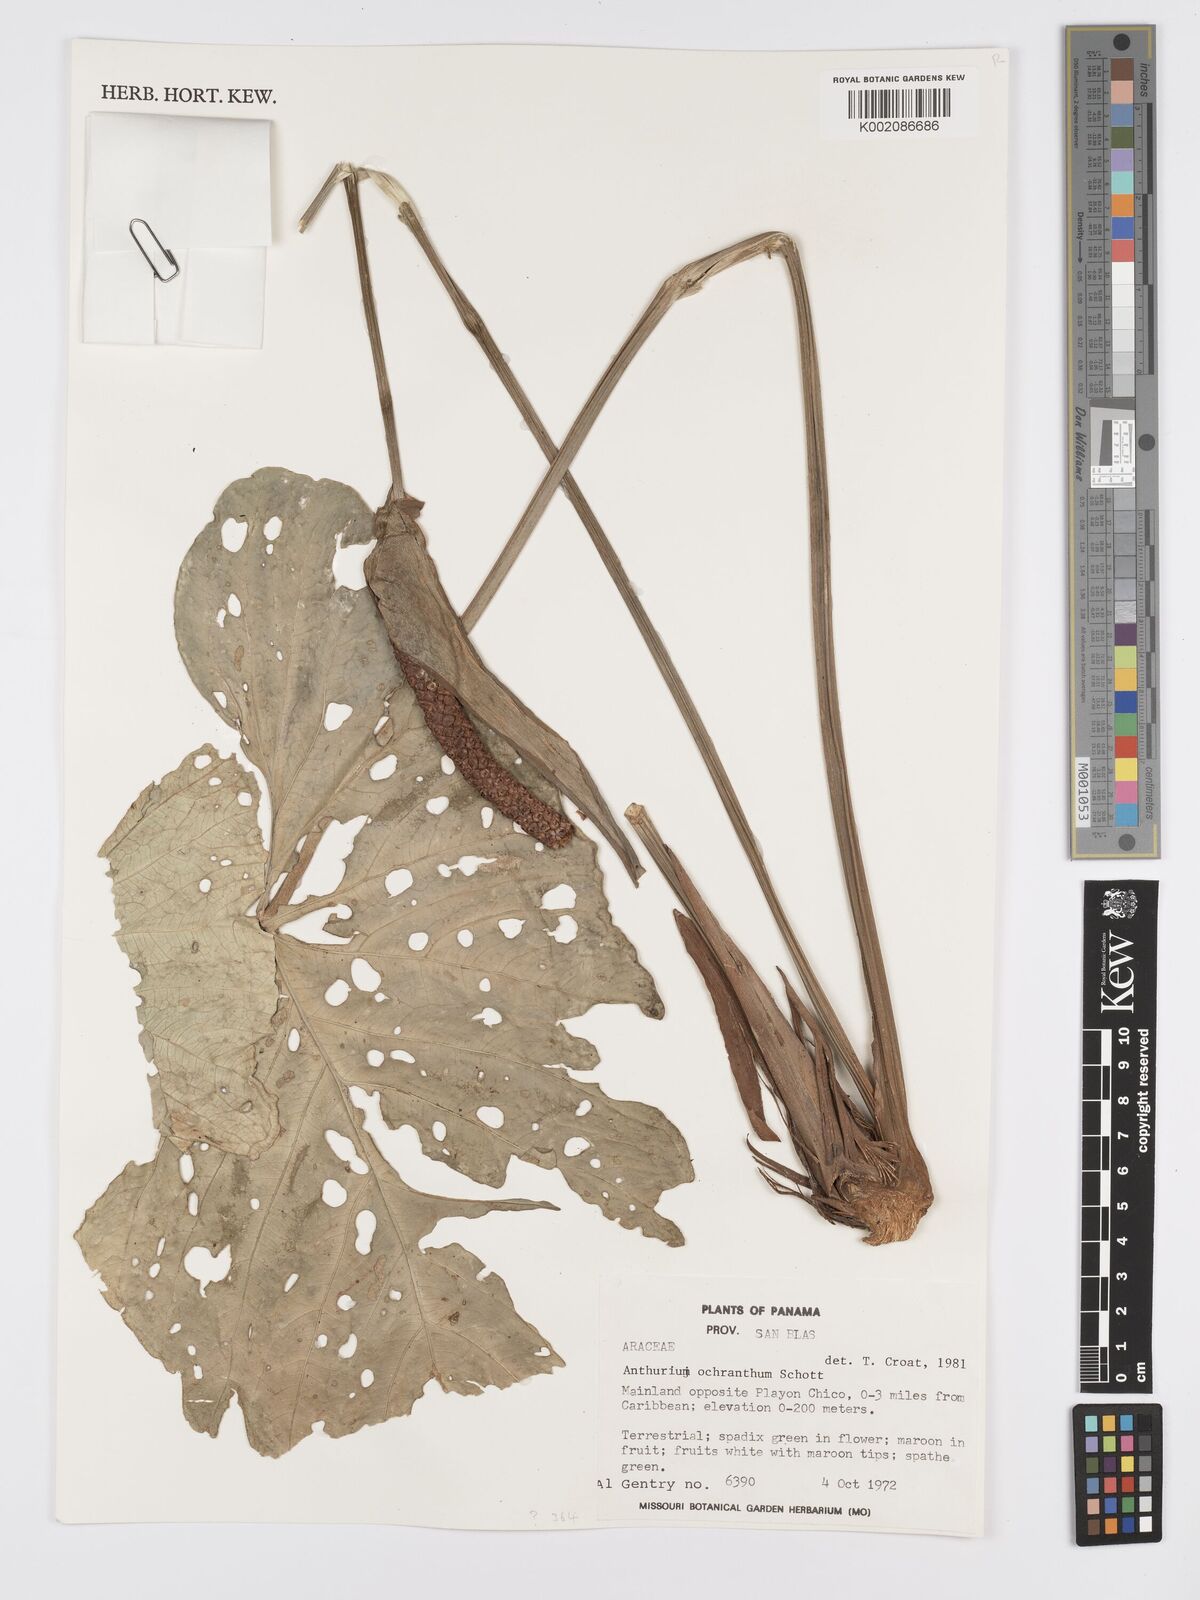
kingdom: Plantae
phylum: Tracheophyta
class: Liliopsida
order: Alismatales
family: Araceae
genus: Anthurium
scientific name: Anthurium ochranthum
